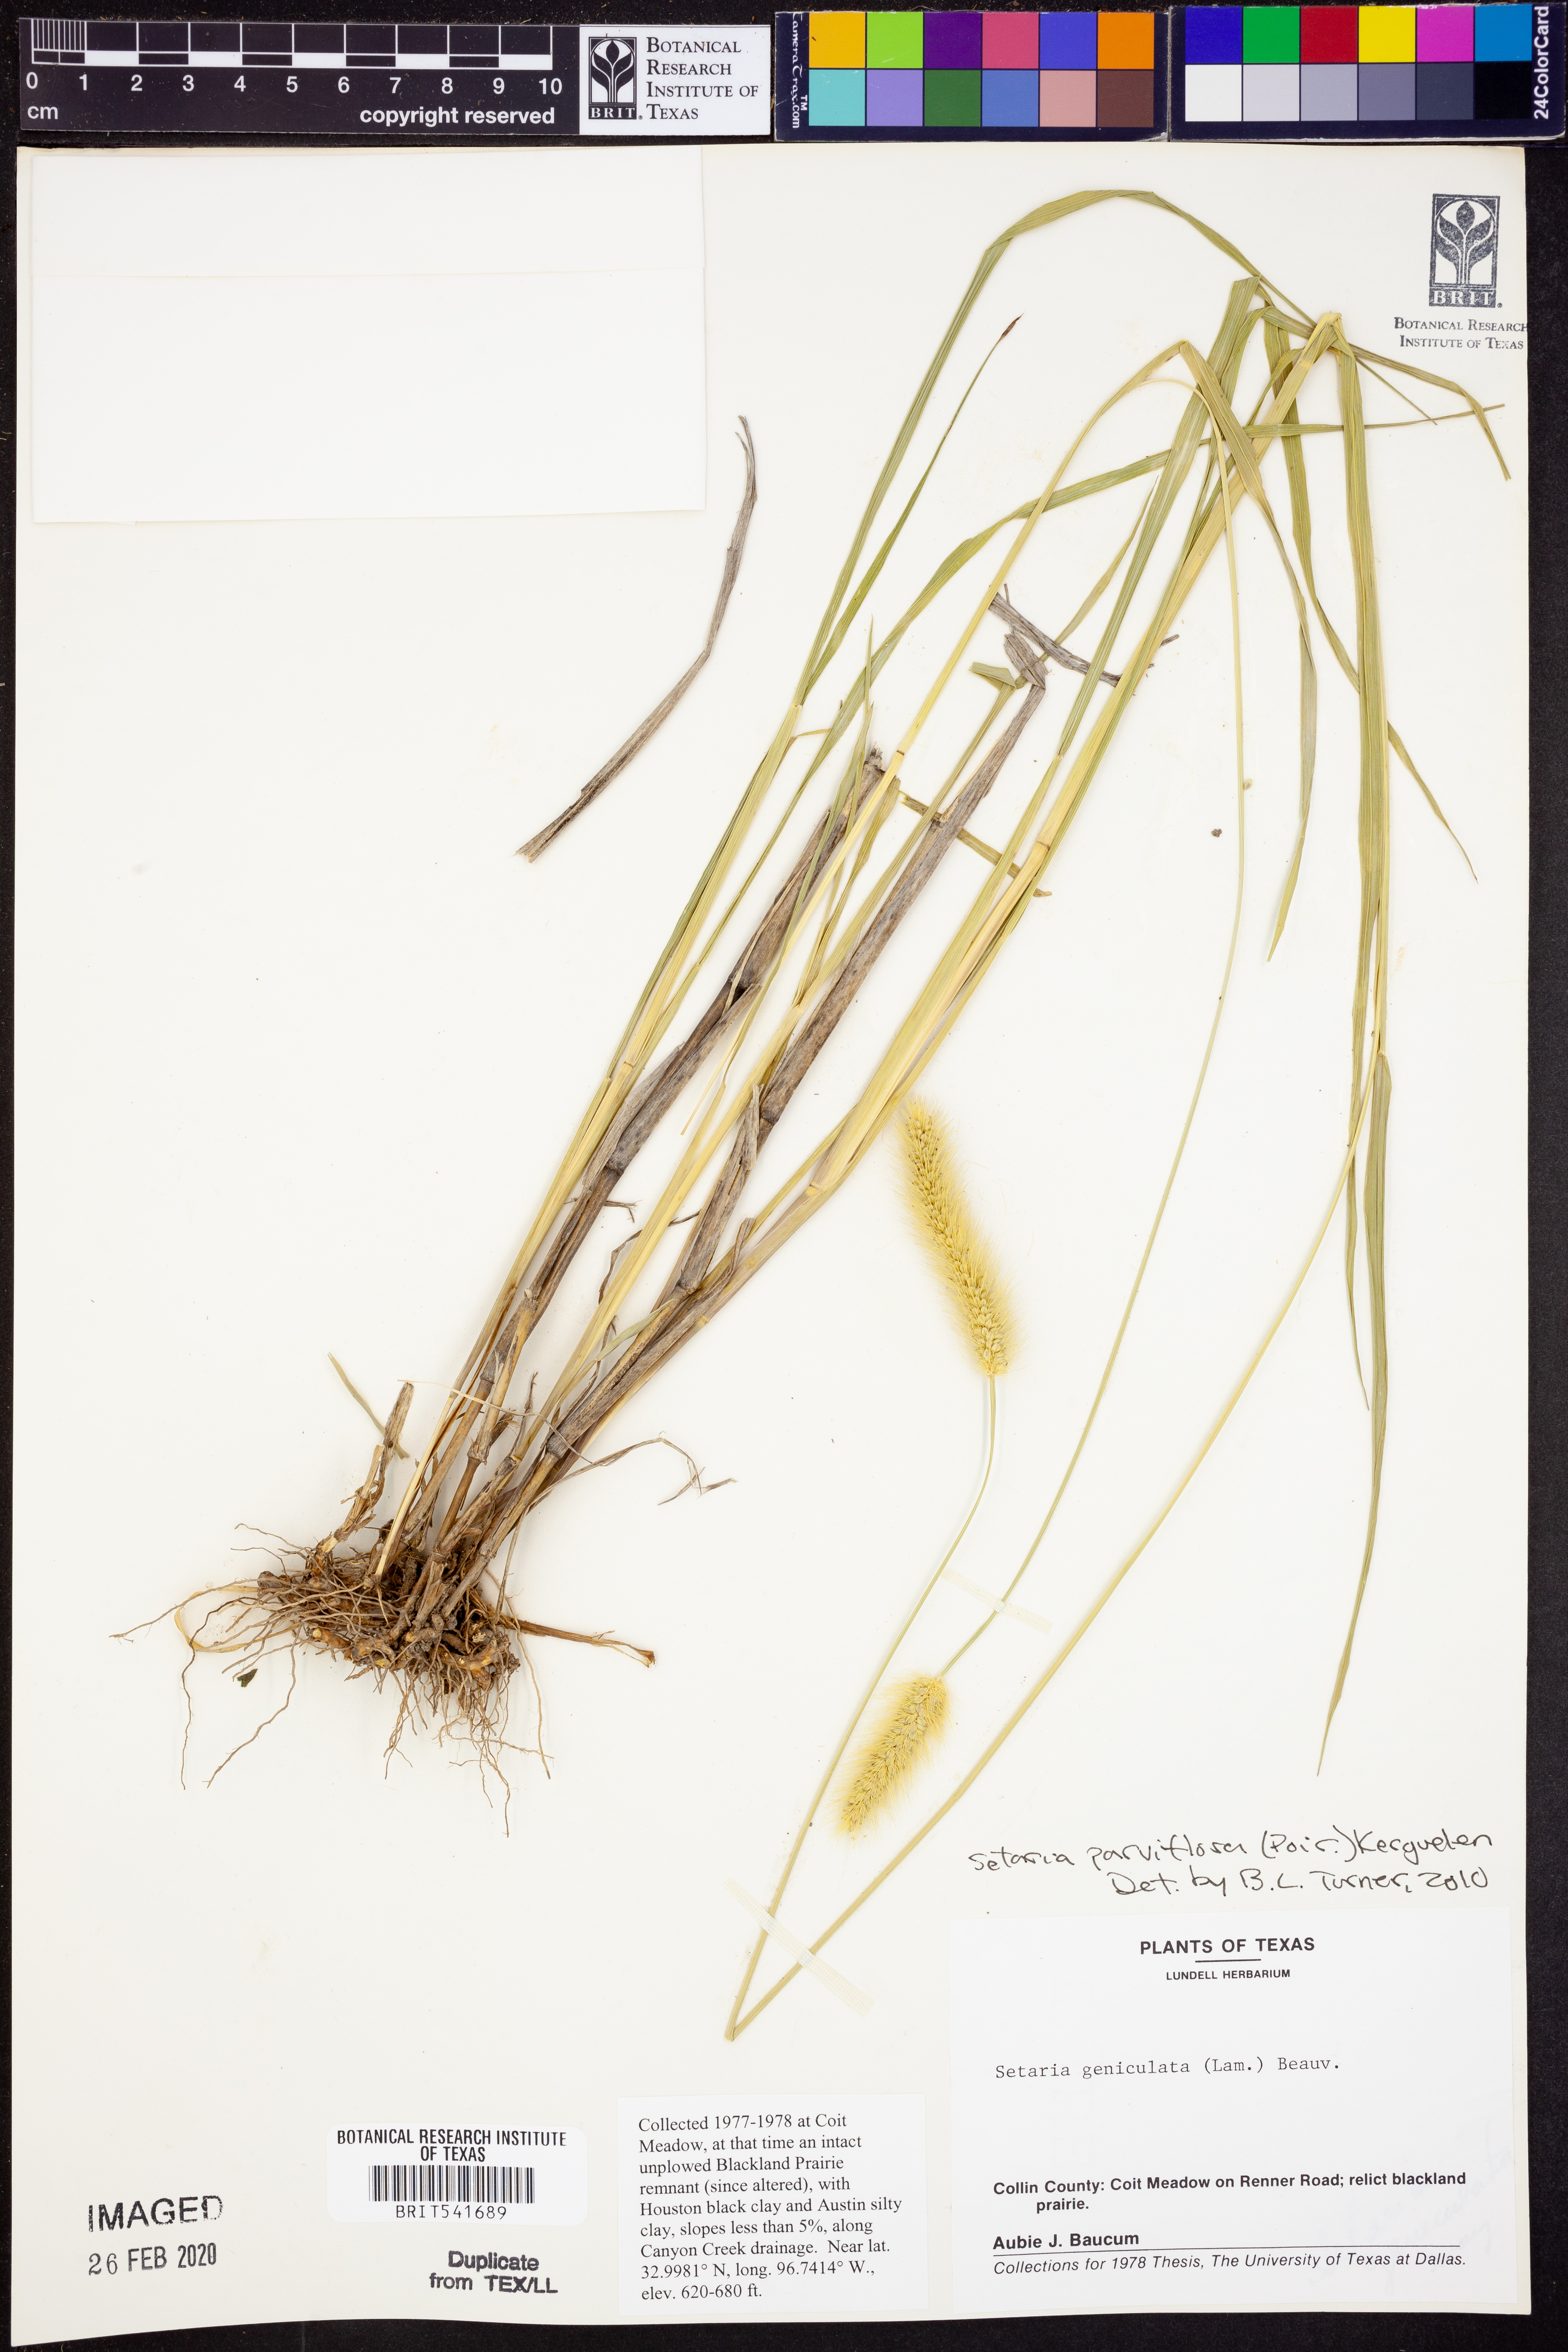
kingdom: Plantae
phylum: Tracheophyta
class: Liliopsida
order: Poales
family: Poaceae
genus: Setaria
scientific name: Setaria parviflora
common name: Knotroot bristle-grass
